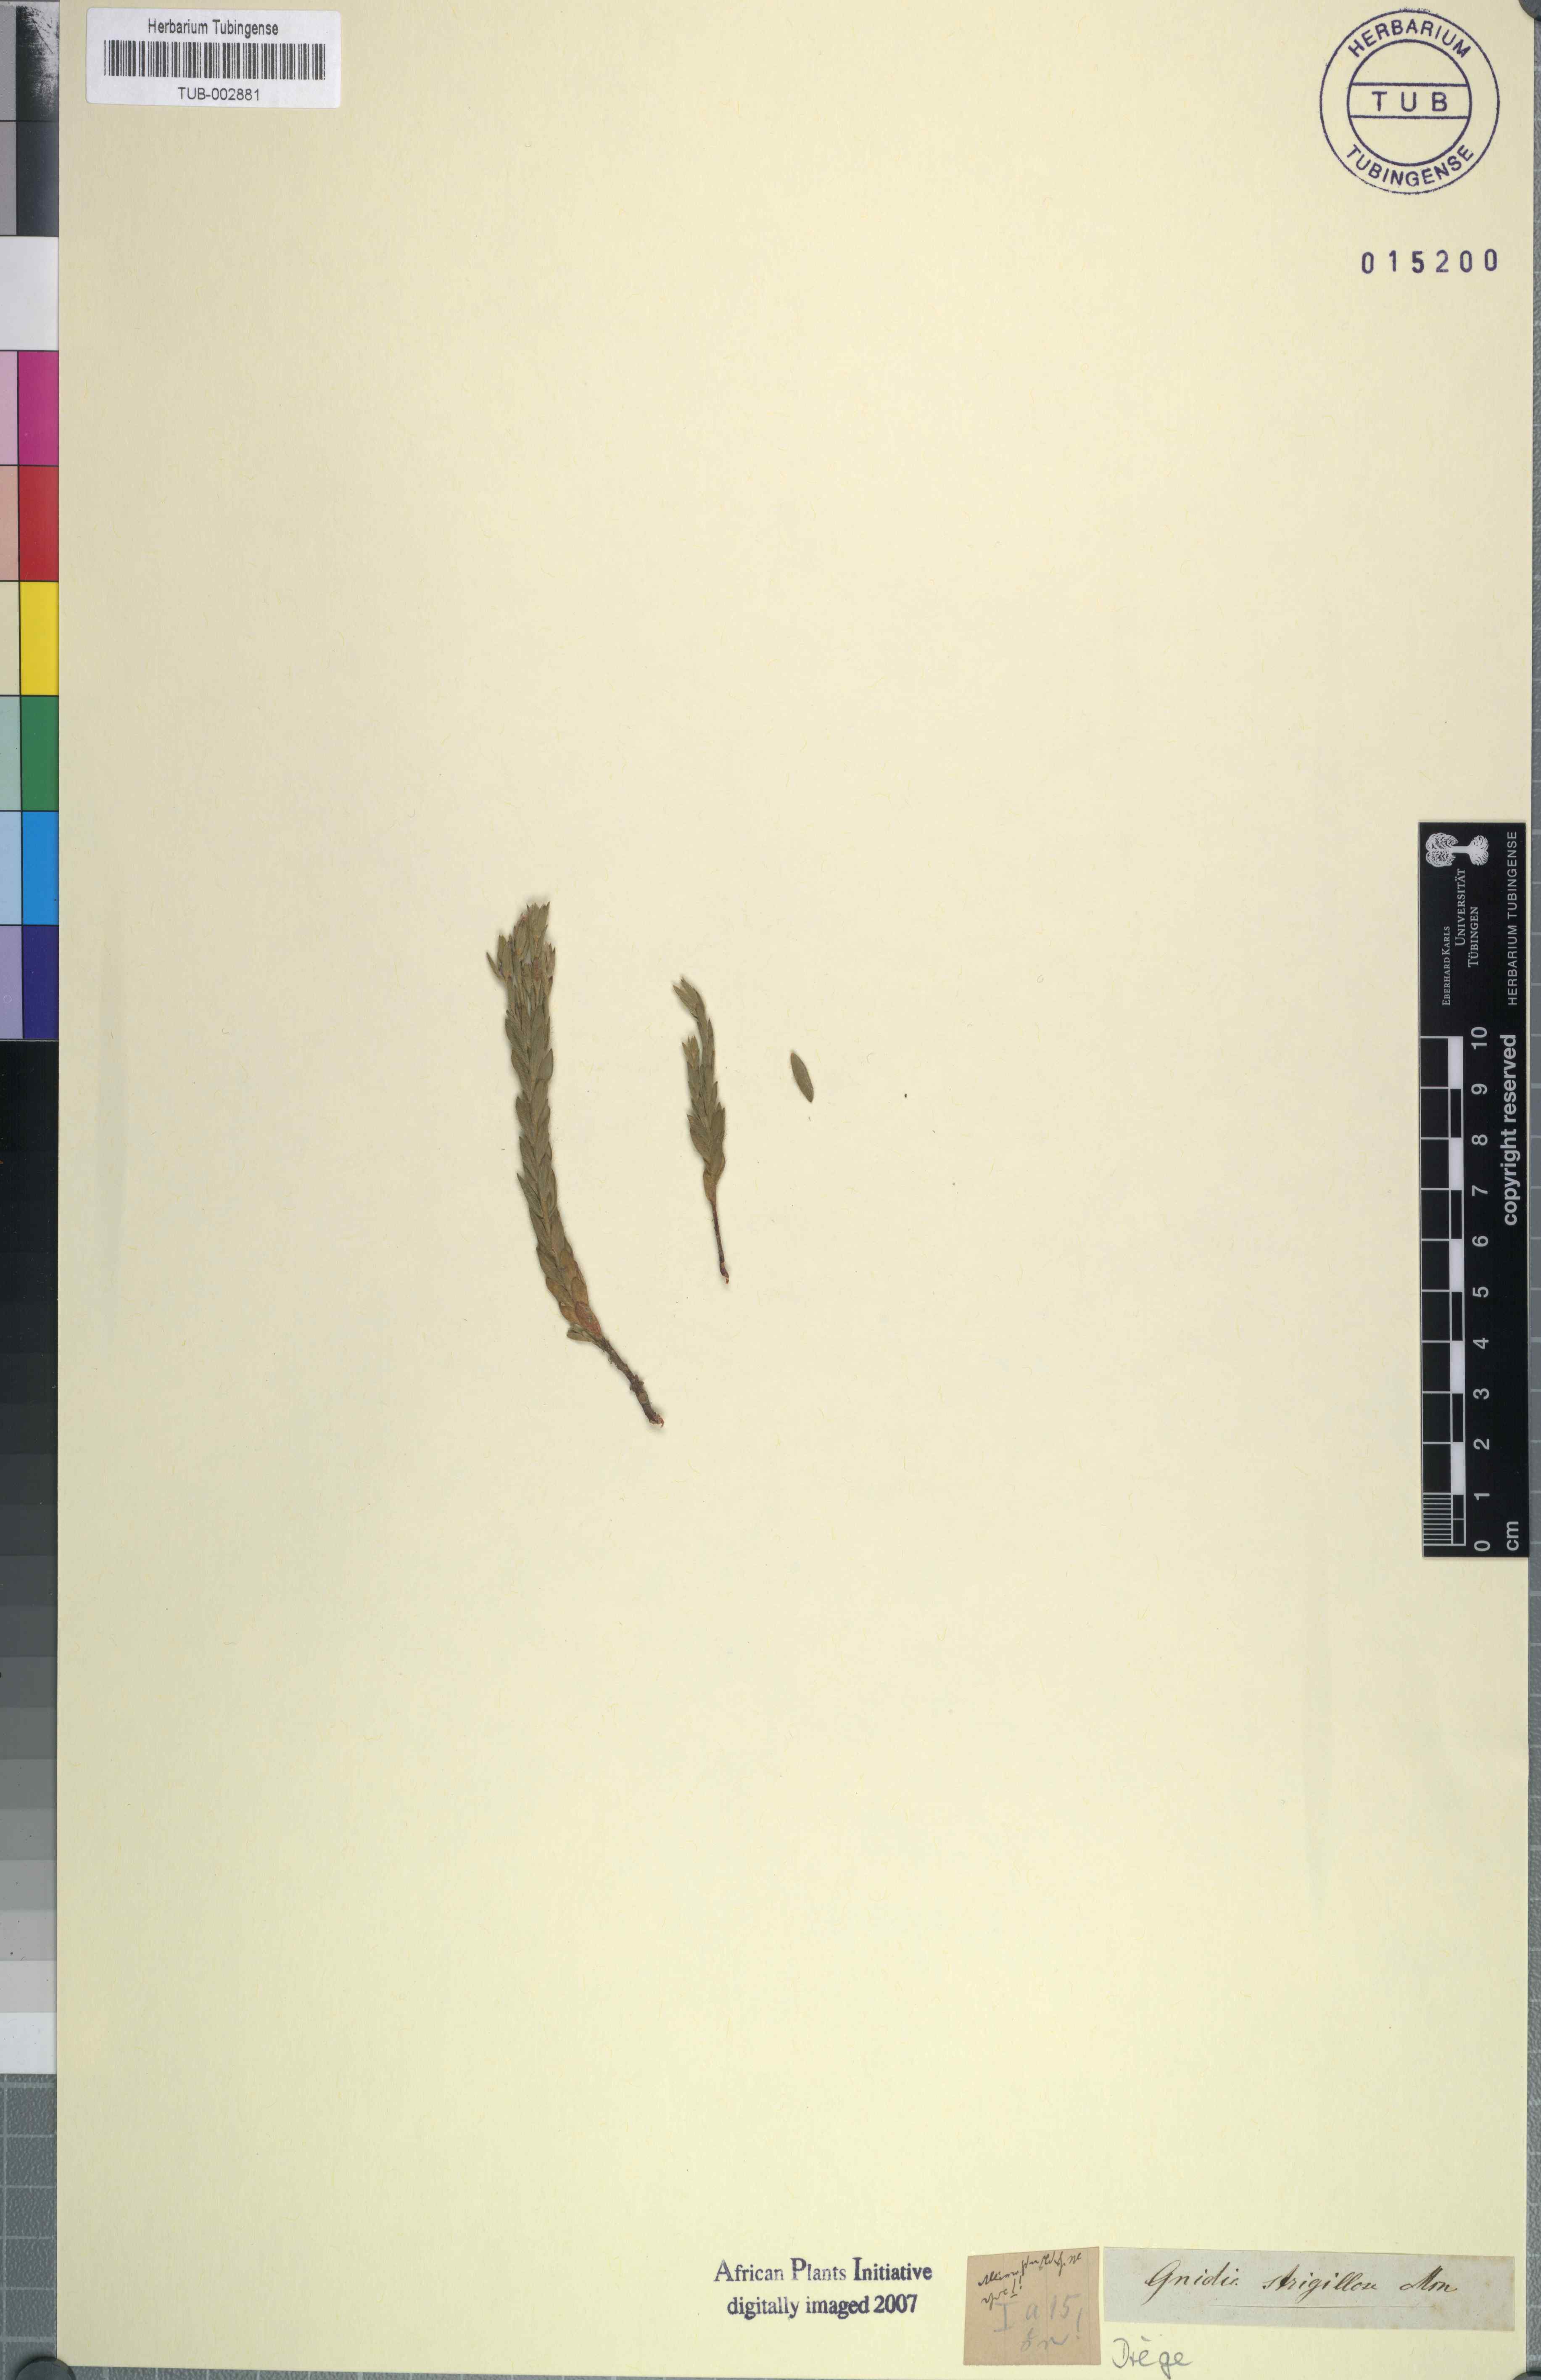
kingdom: Plantae
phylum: Tracheophyta
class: Magnoliopsida
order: Malvales
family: Thymelaeaceae
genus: Gnidia
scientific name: Gnidia strigillosa
